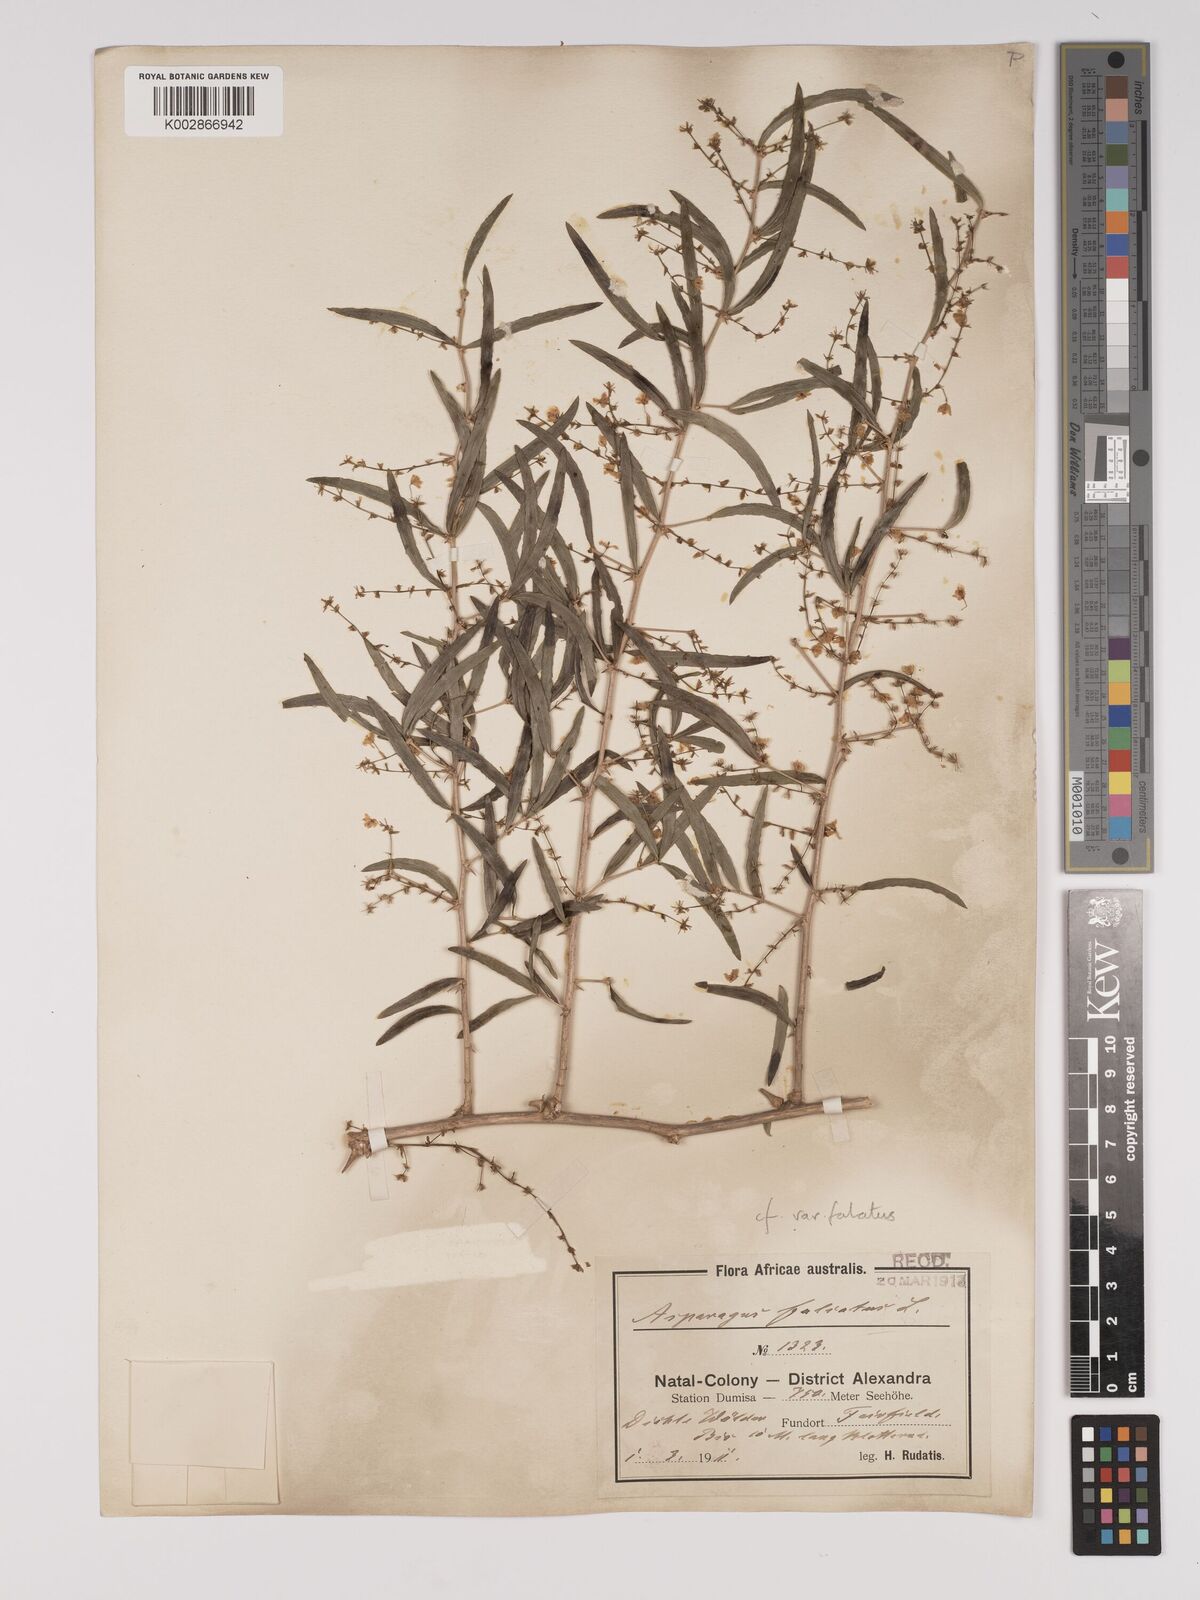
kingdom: Plantae
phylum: Tracheophyta
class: Liliopsida
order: Asparagales
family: Asparagaceae
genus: Asparagus
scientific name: Asparagus falcatus
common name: Asparagus
